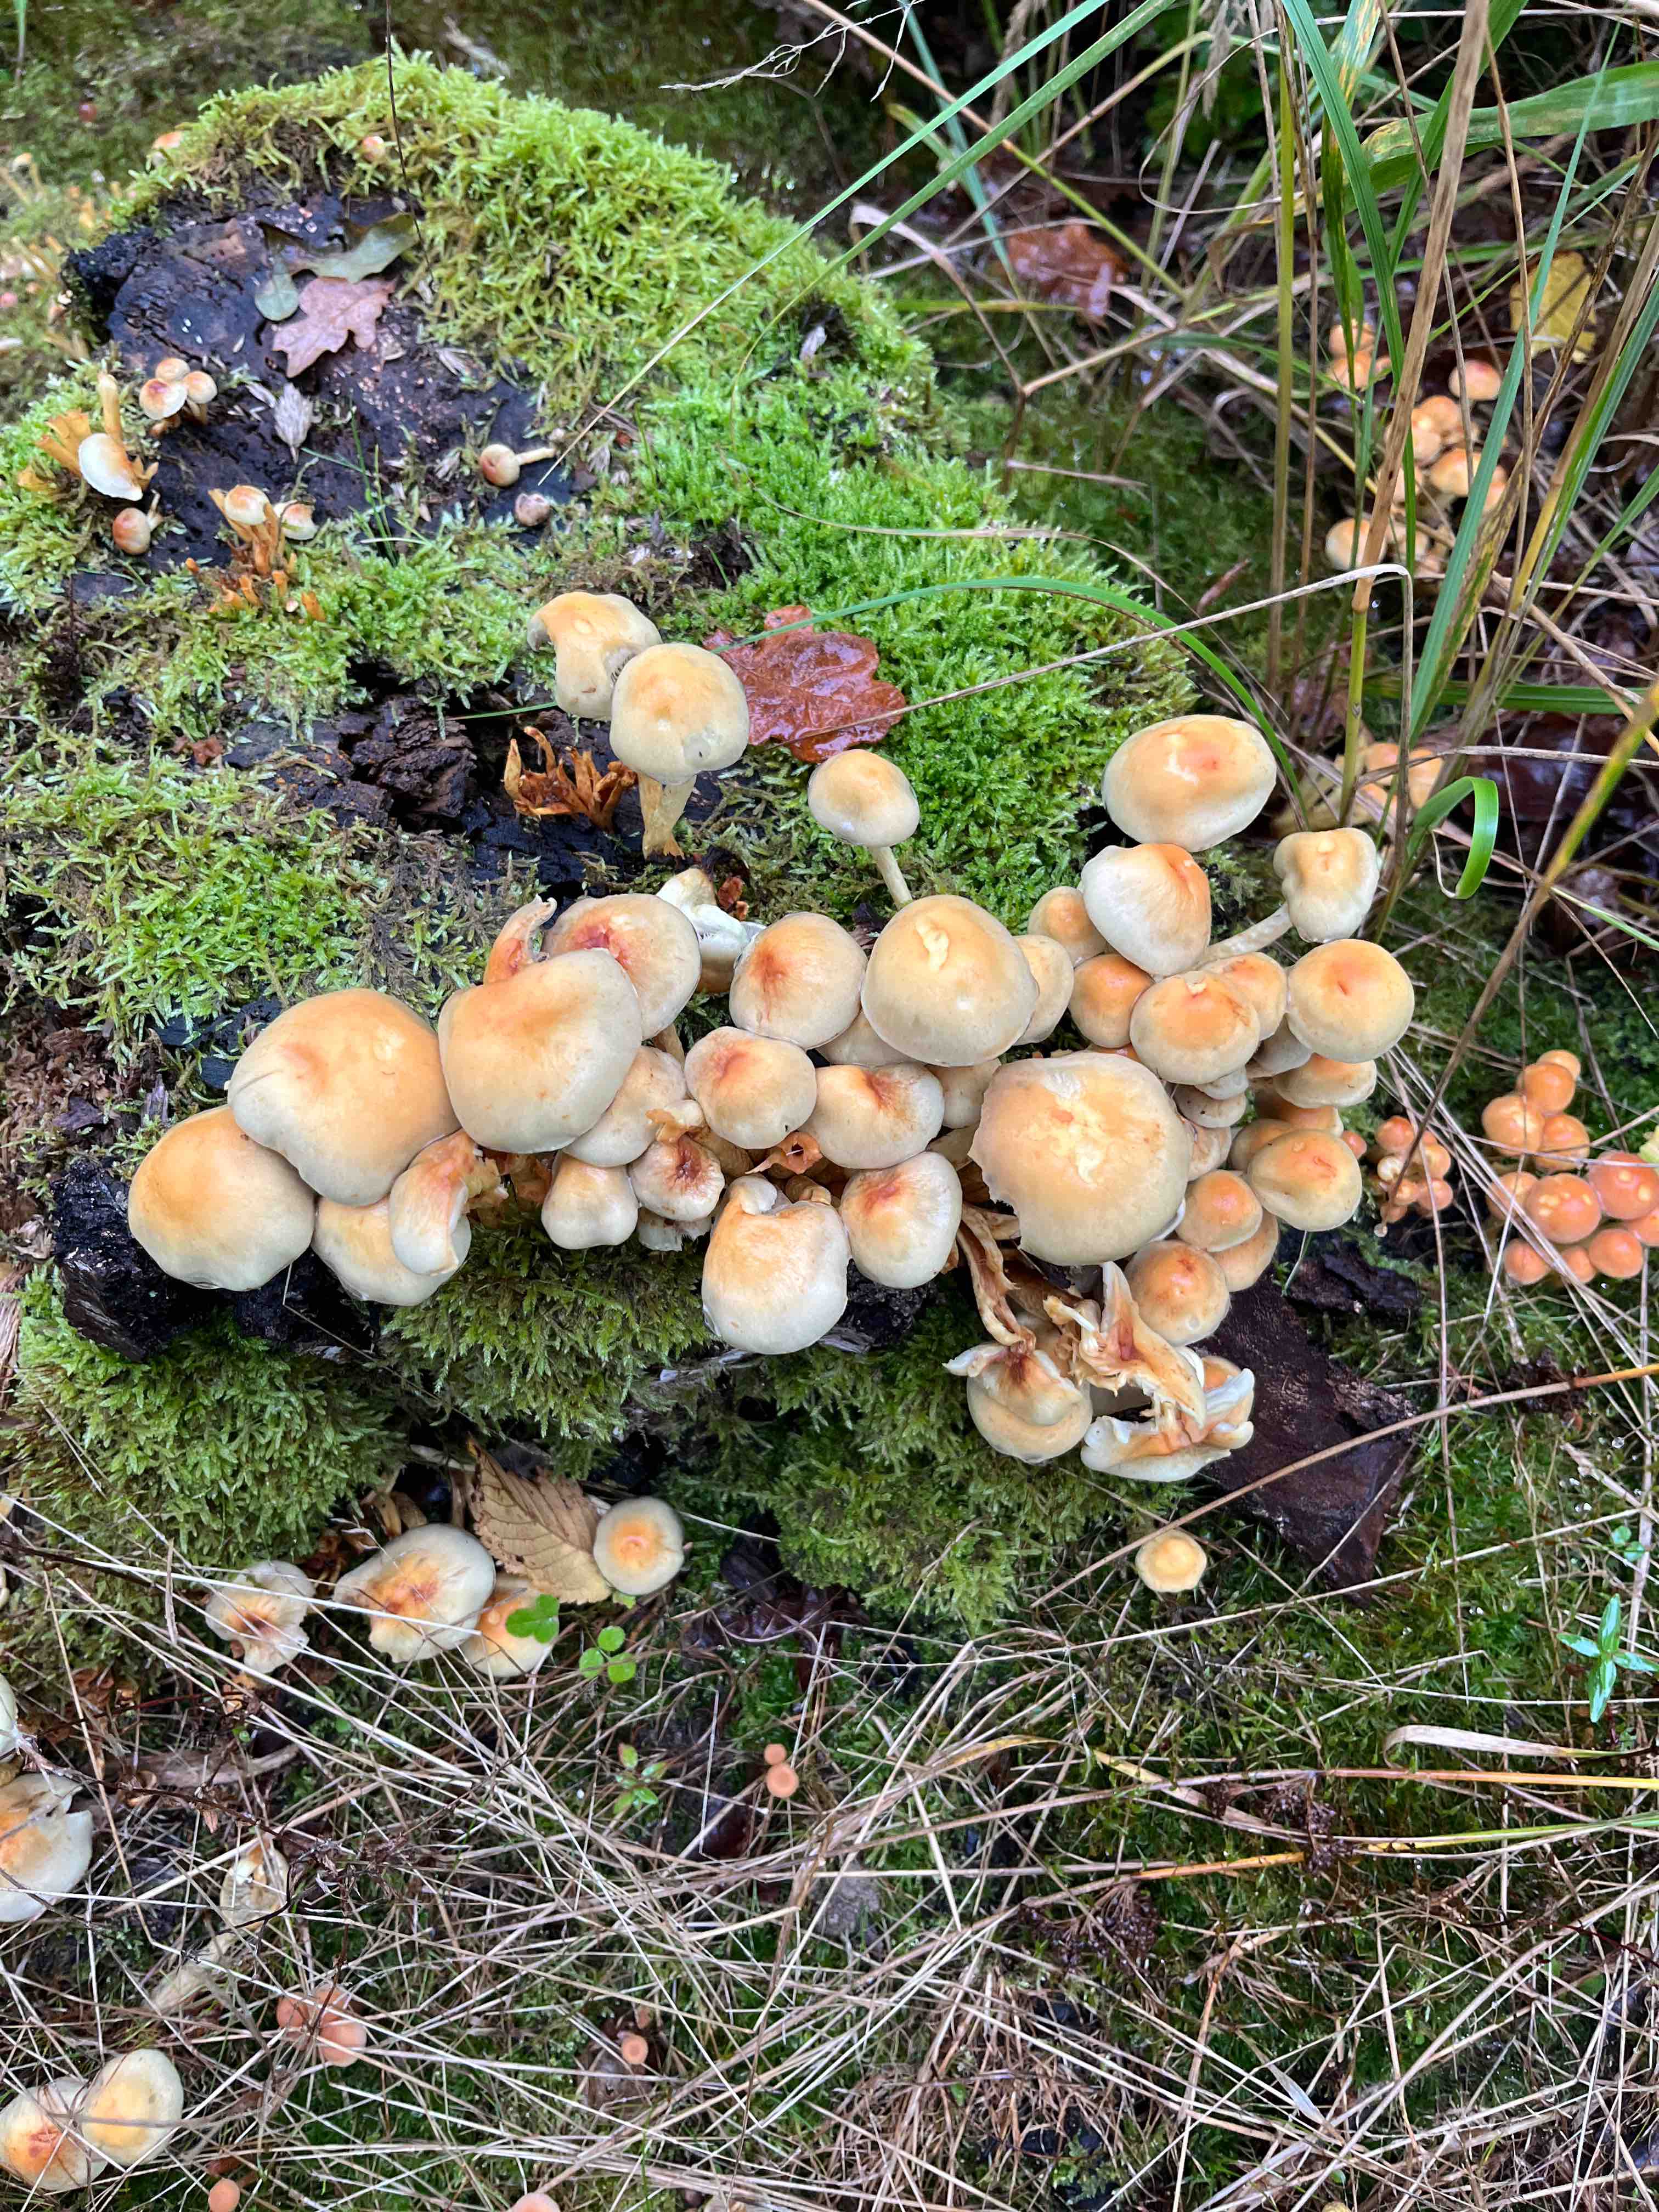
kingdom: Fungi
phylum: Basidiomycota
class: Agaricomycetes
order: Agaricales
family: Strophariaceae
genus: Hypholoma
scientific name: Hypholoma fasciculare
